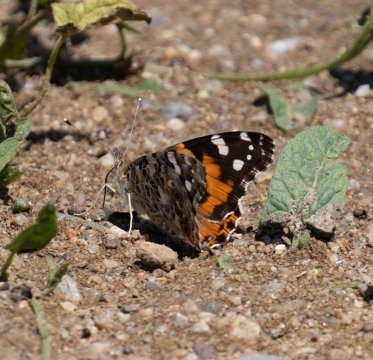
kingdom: Animalia
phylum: Arthropoda
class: Insecta
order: Lepidoptera
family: Nymphalidae
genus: Vanessa
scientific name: Vanessa cardui
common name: Painted Lady
